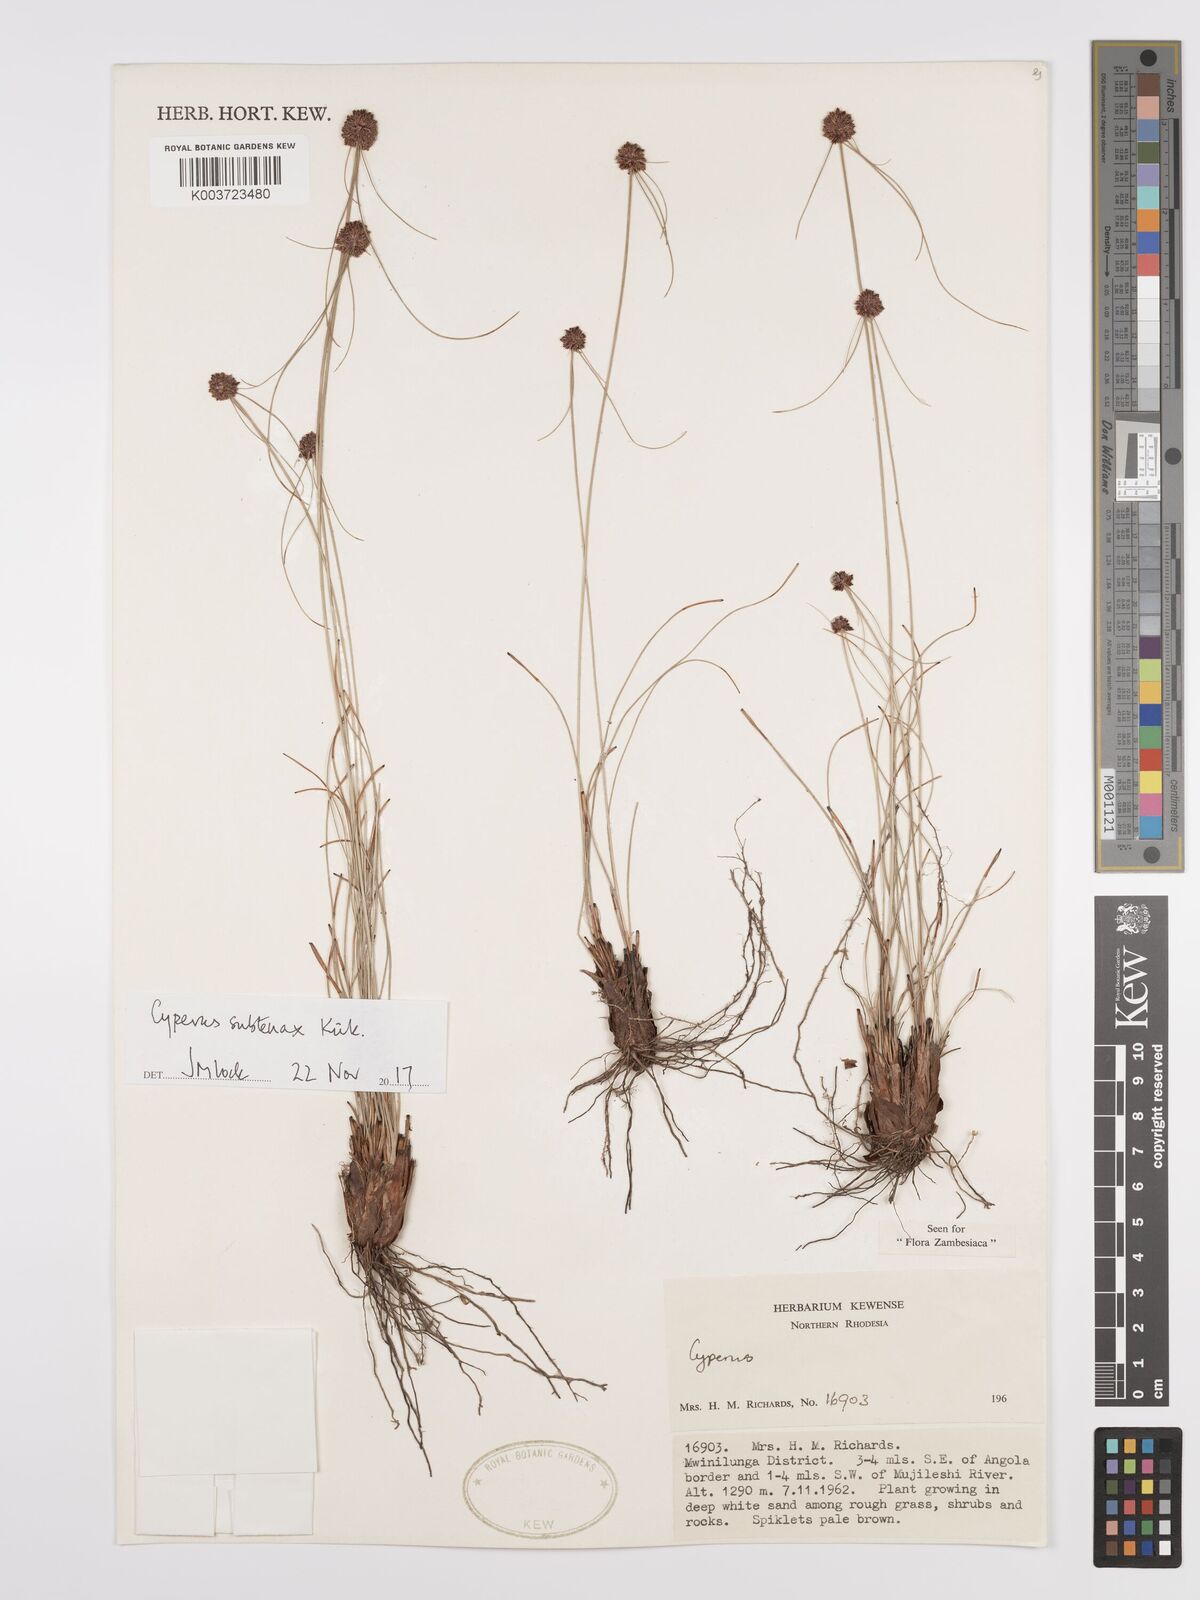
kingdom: Plantae
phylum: Tracheophyta
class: Liliopsida
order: Poales
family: Cyperaceae
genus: Cyperus
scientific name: Cyperus subtenax
